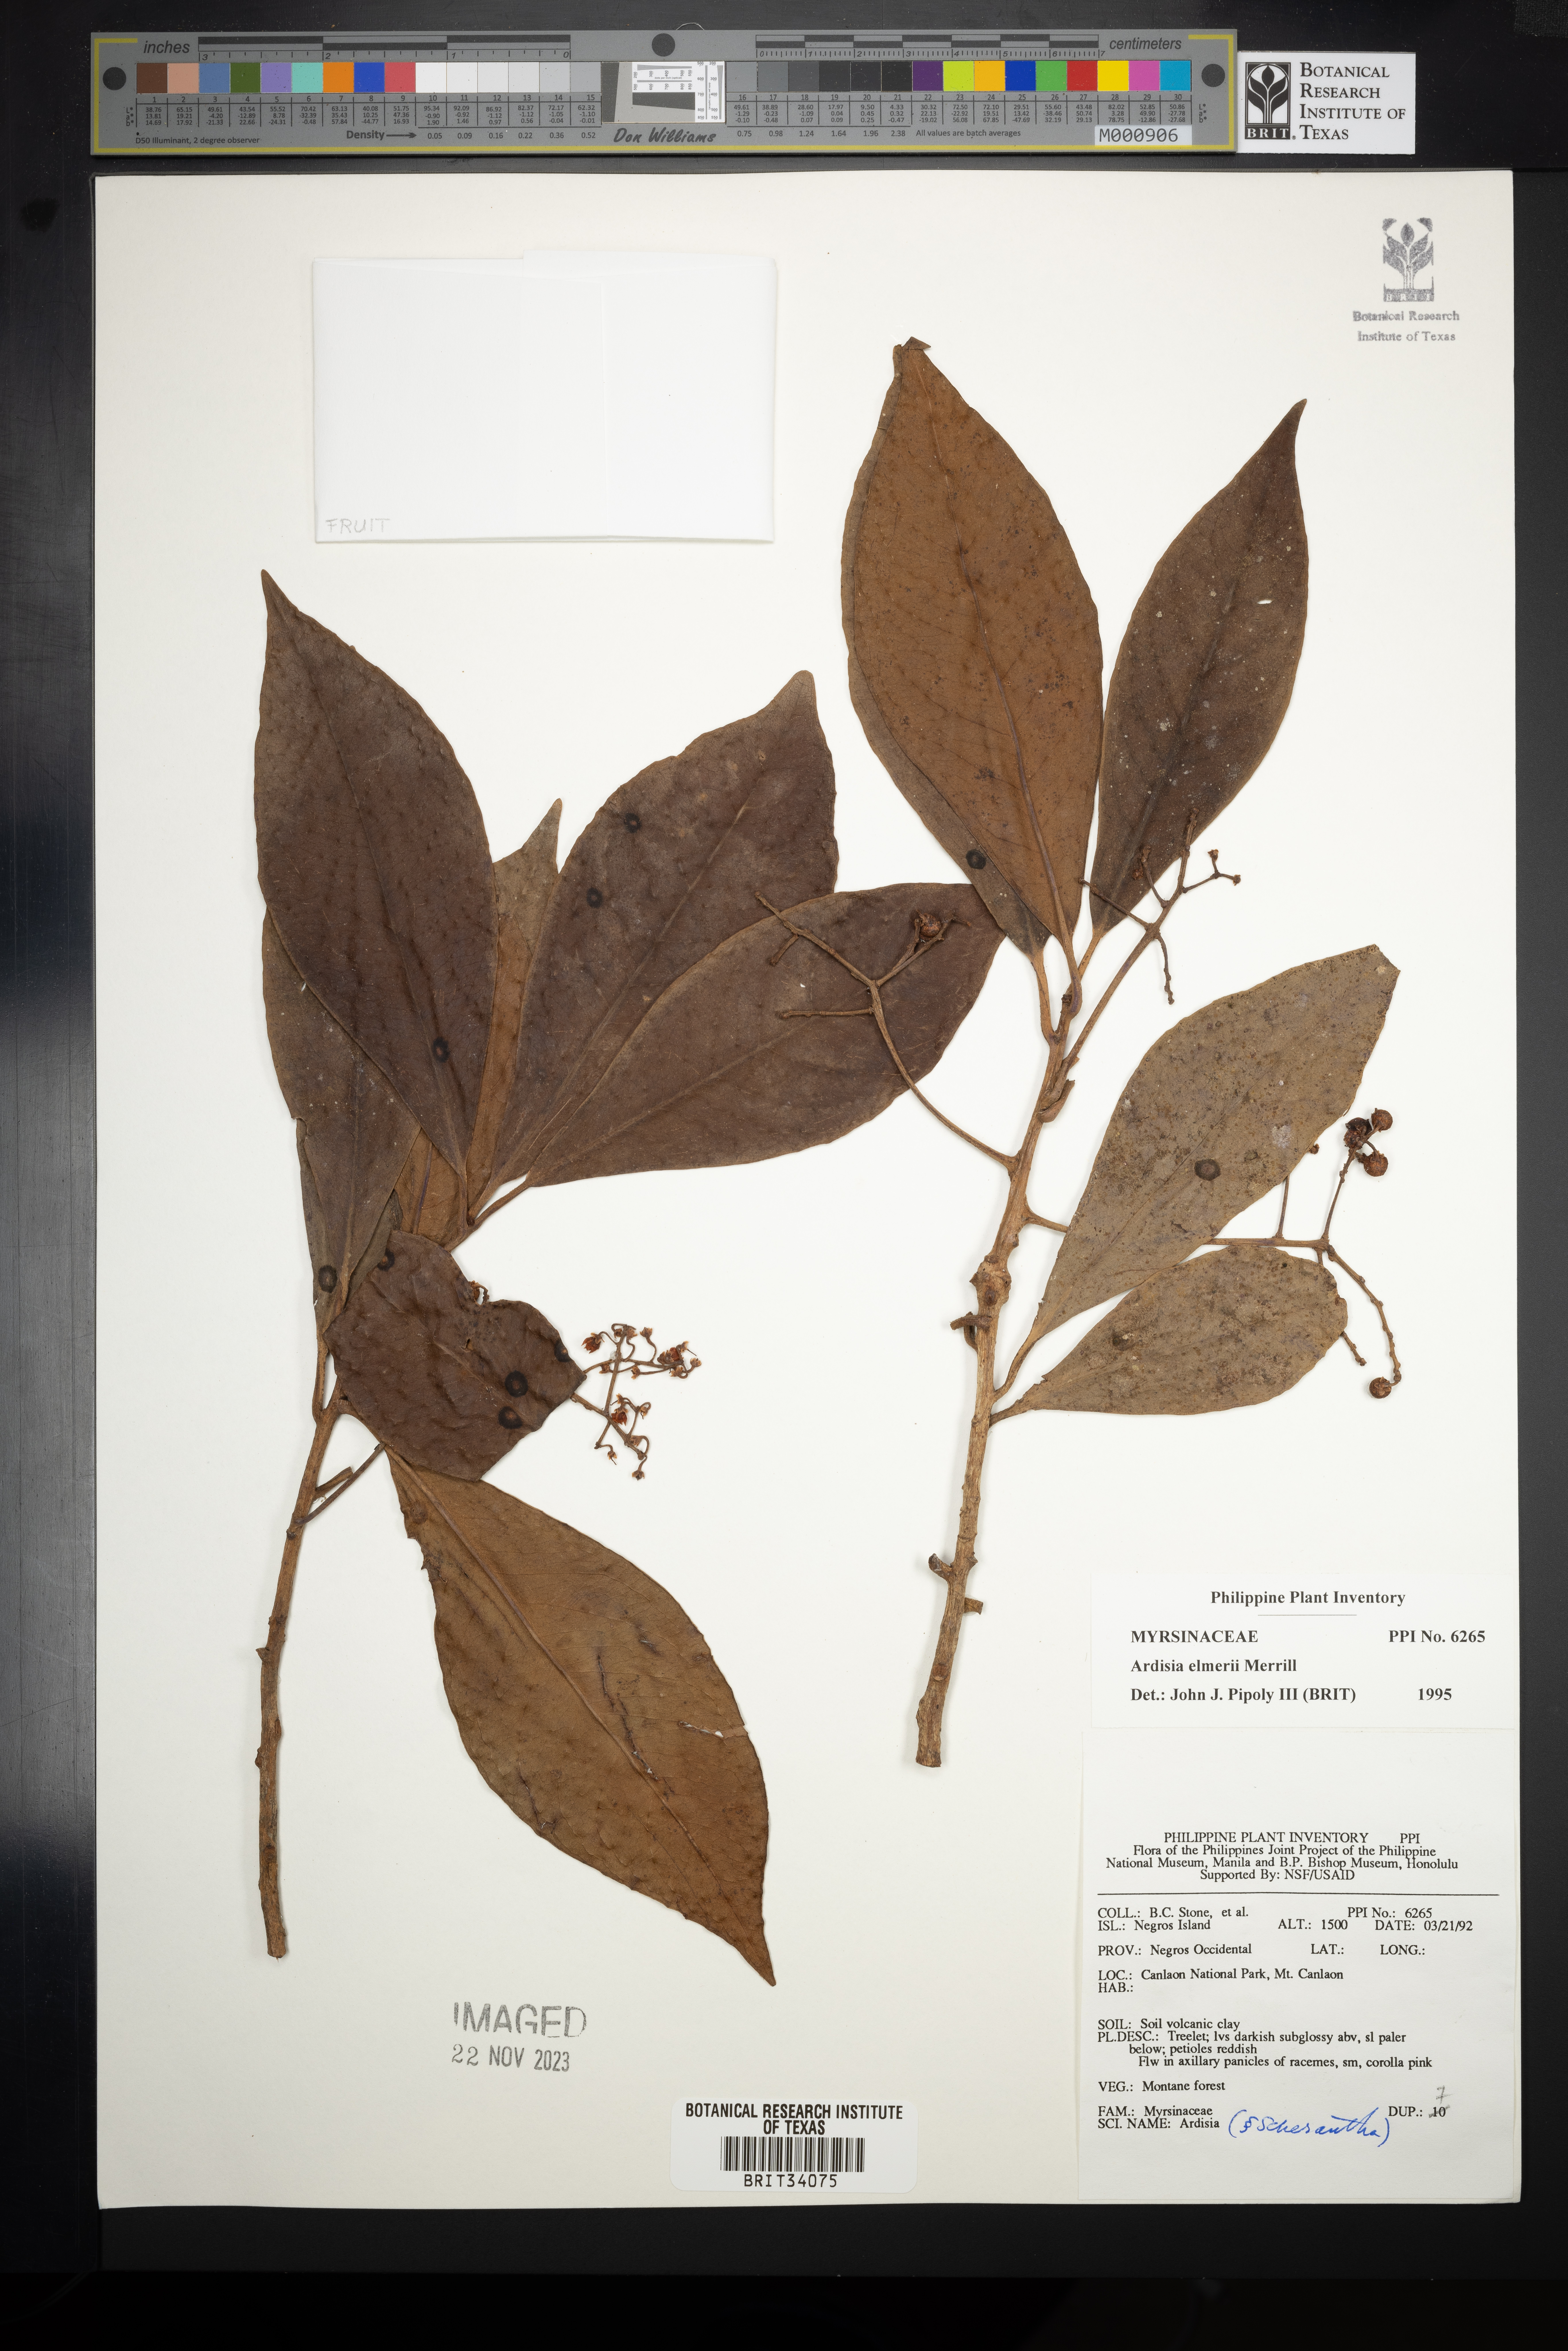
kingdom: Plantae
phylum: Tracheophyta
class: Magnoliopsida
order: Ericales
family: Primulaceae
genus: Ardisia
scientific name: Ardisia elmeri
